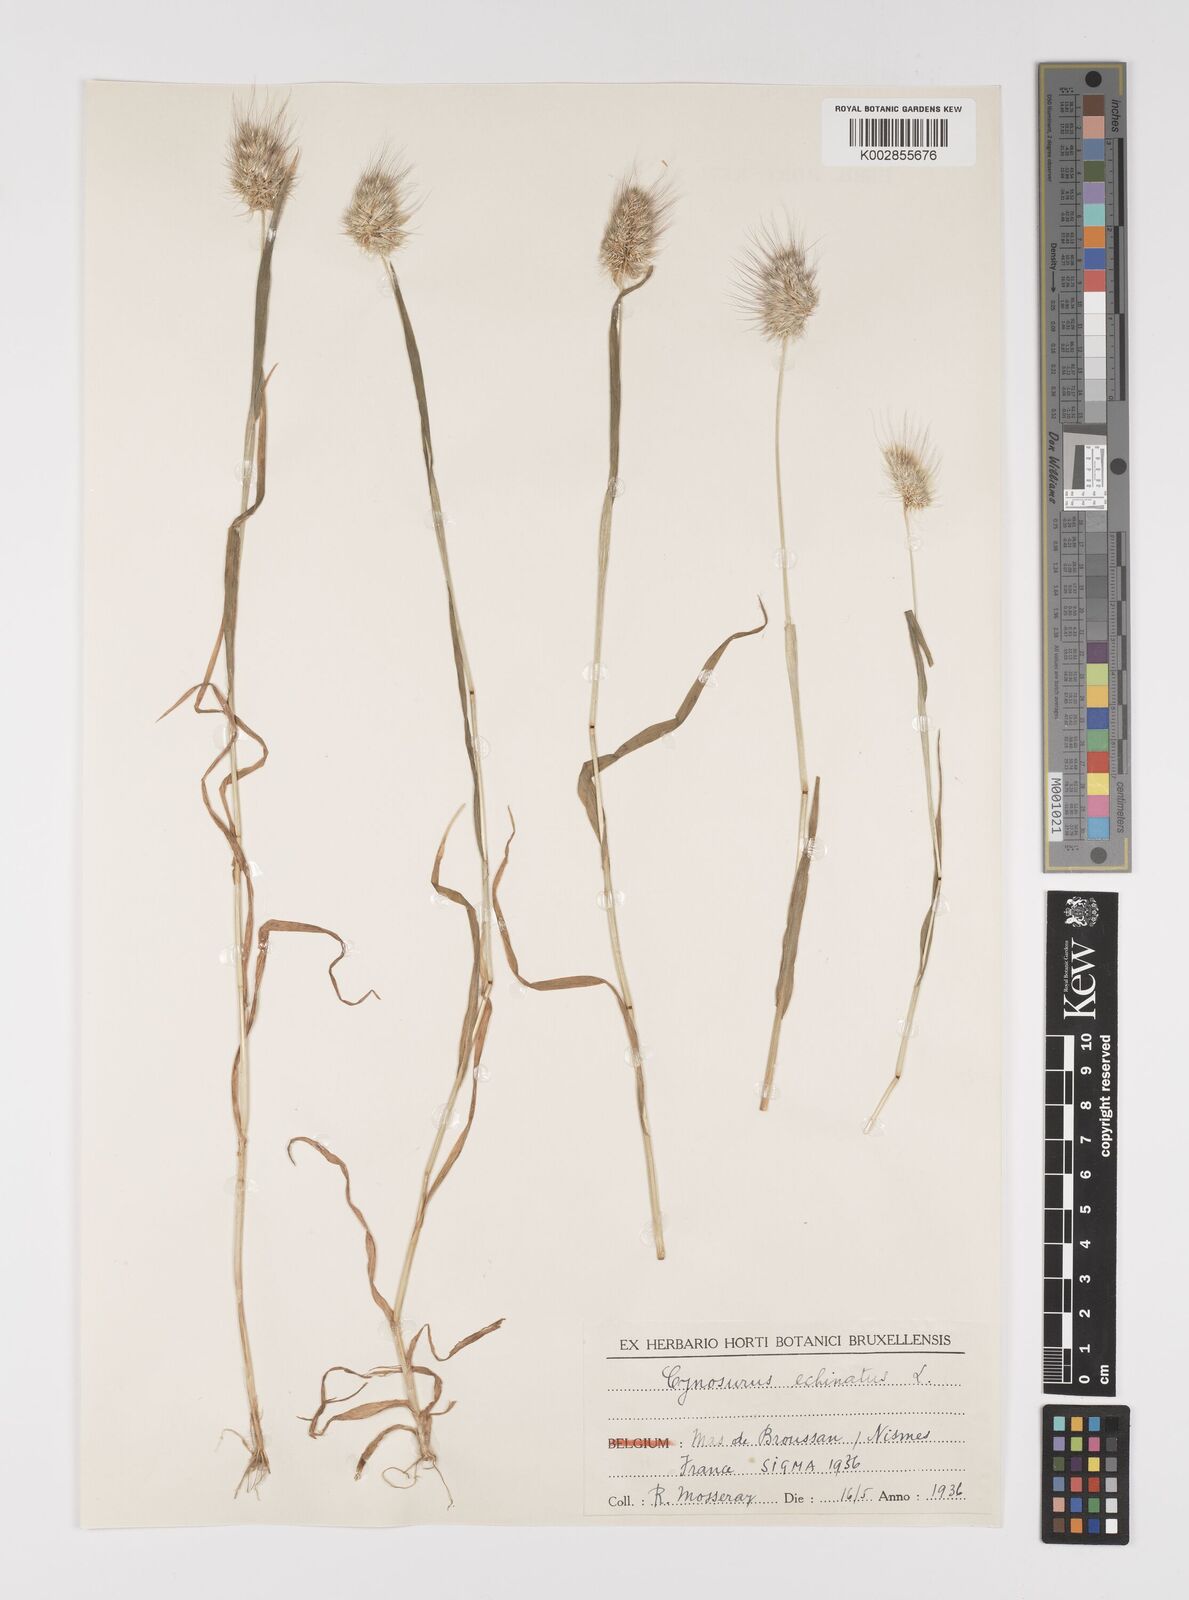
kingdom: Plantae
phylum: Tracheophyta
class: Liliopsida
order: Poales
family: Poaceae
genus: Cynosurus
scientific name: Cynosurus echinatus
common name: Rough dog's-tail
